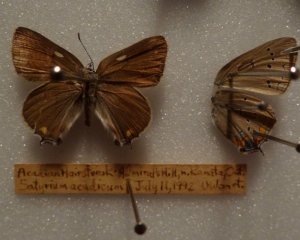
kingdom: Animalia
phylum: Arthropoda
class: Insecta
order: Lepidoptera
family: Lycaenidae
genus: Strymon
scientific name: Strymon acadica
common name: Acadian Hairstreak
